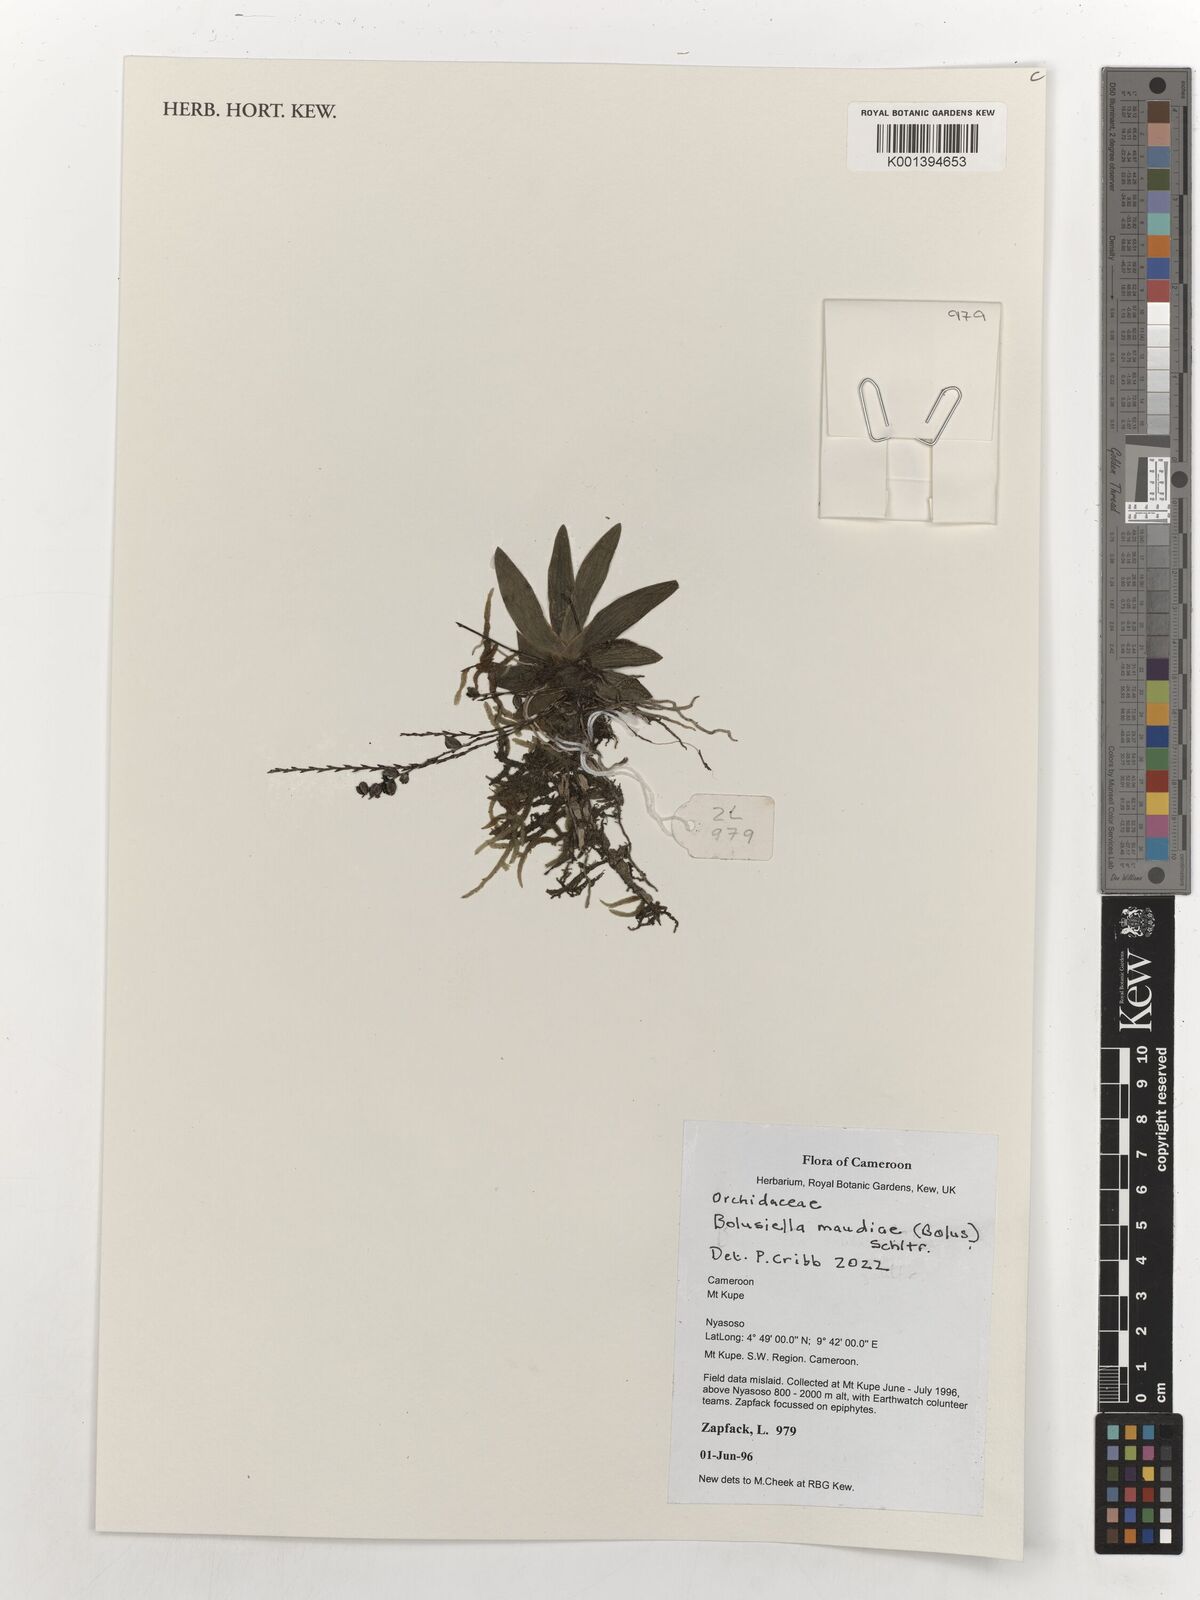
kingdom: Plantae
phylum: Tracheophyta
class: Liliopsida
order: Asparagales
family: Orchidaceae
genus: Bolusiella
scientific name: Bolusiella maudiae
